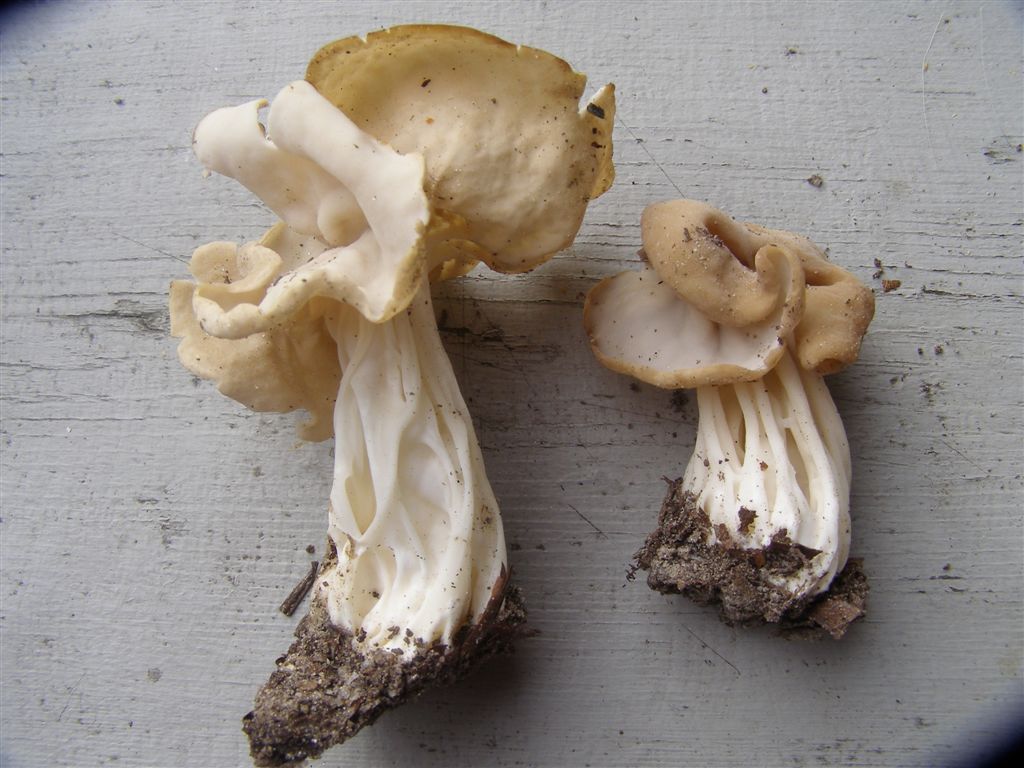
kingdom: Fungi
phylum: Ascomycota
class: Pezizomycetes
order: Pezizales
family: Helvellaceae
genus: Helvella
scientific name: Helvella crispa
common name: kruset foldhat
